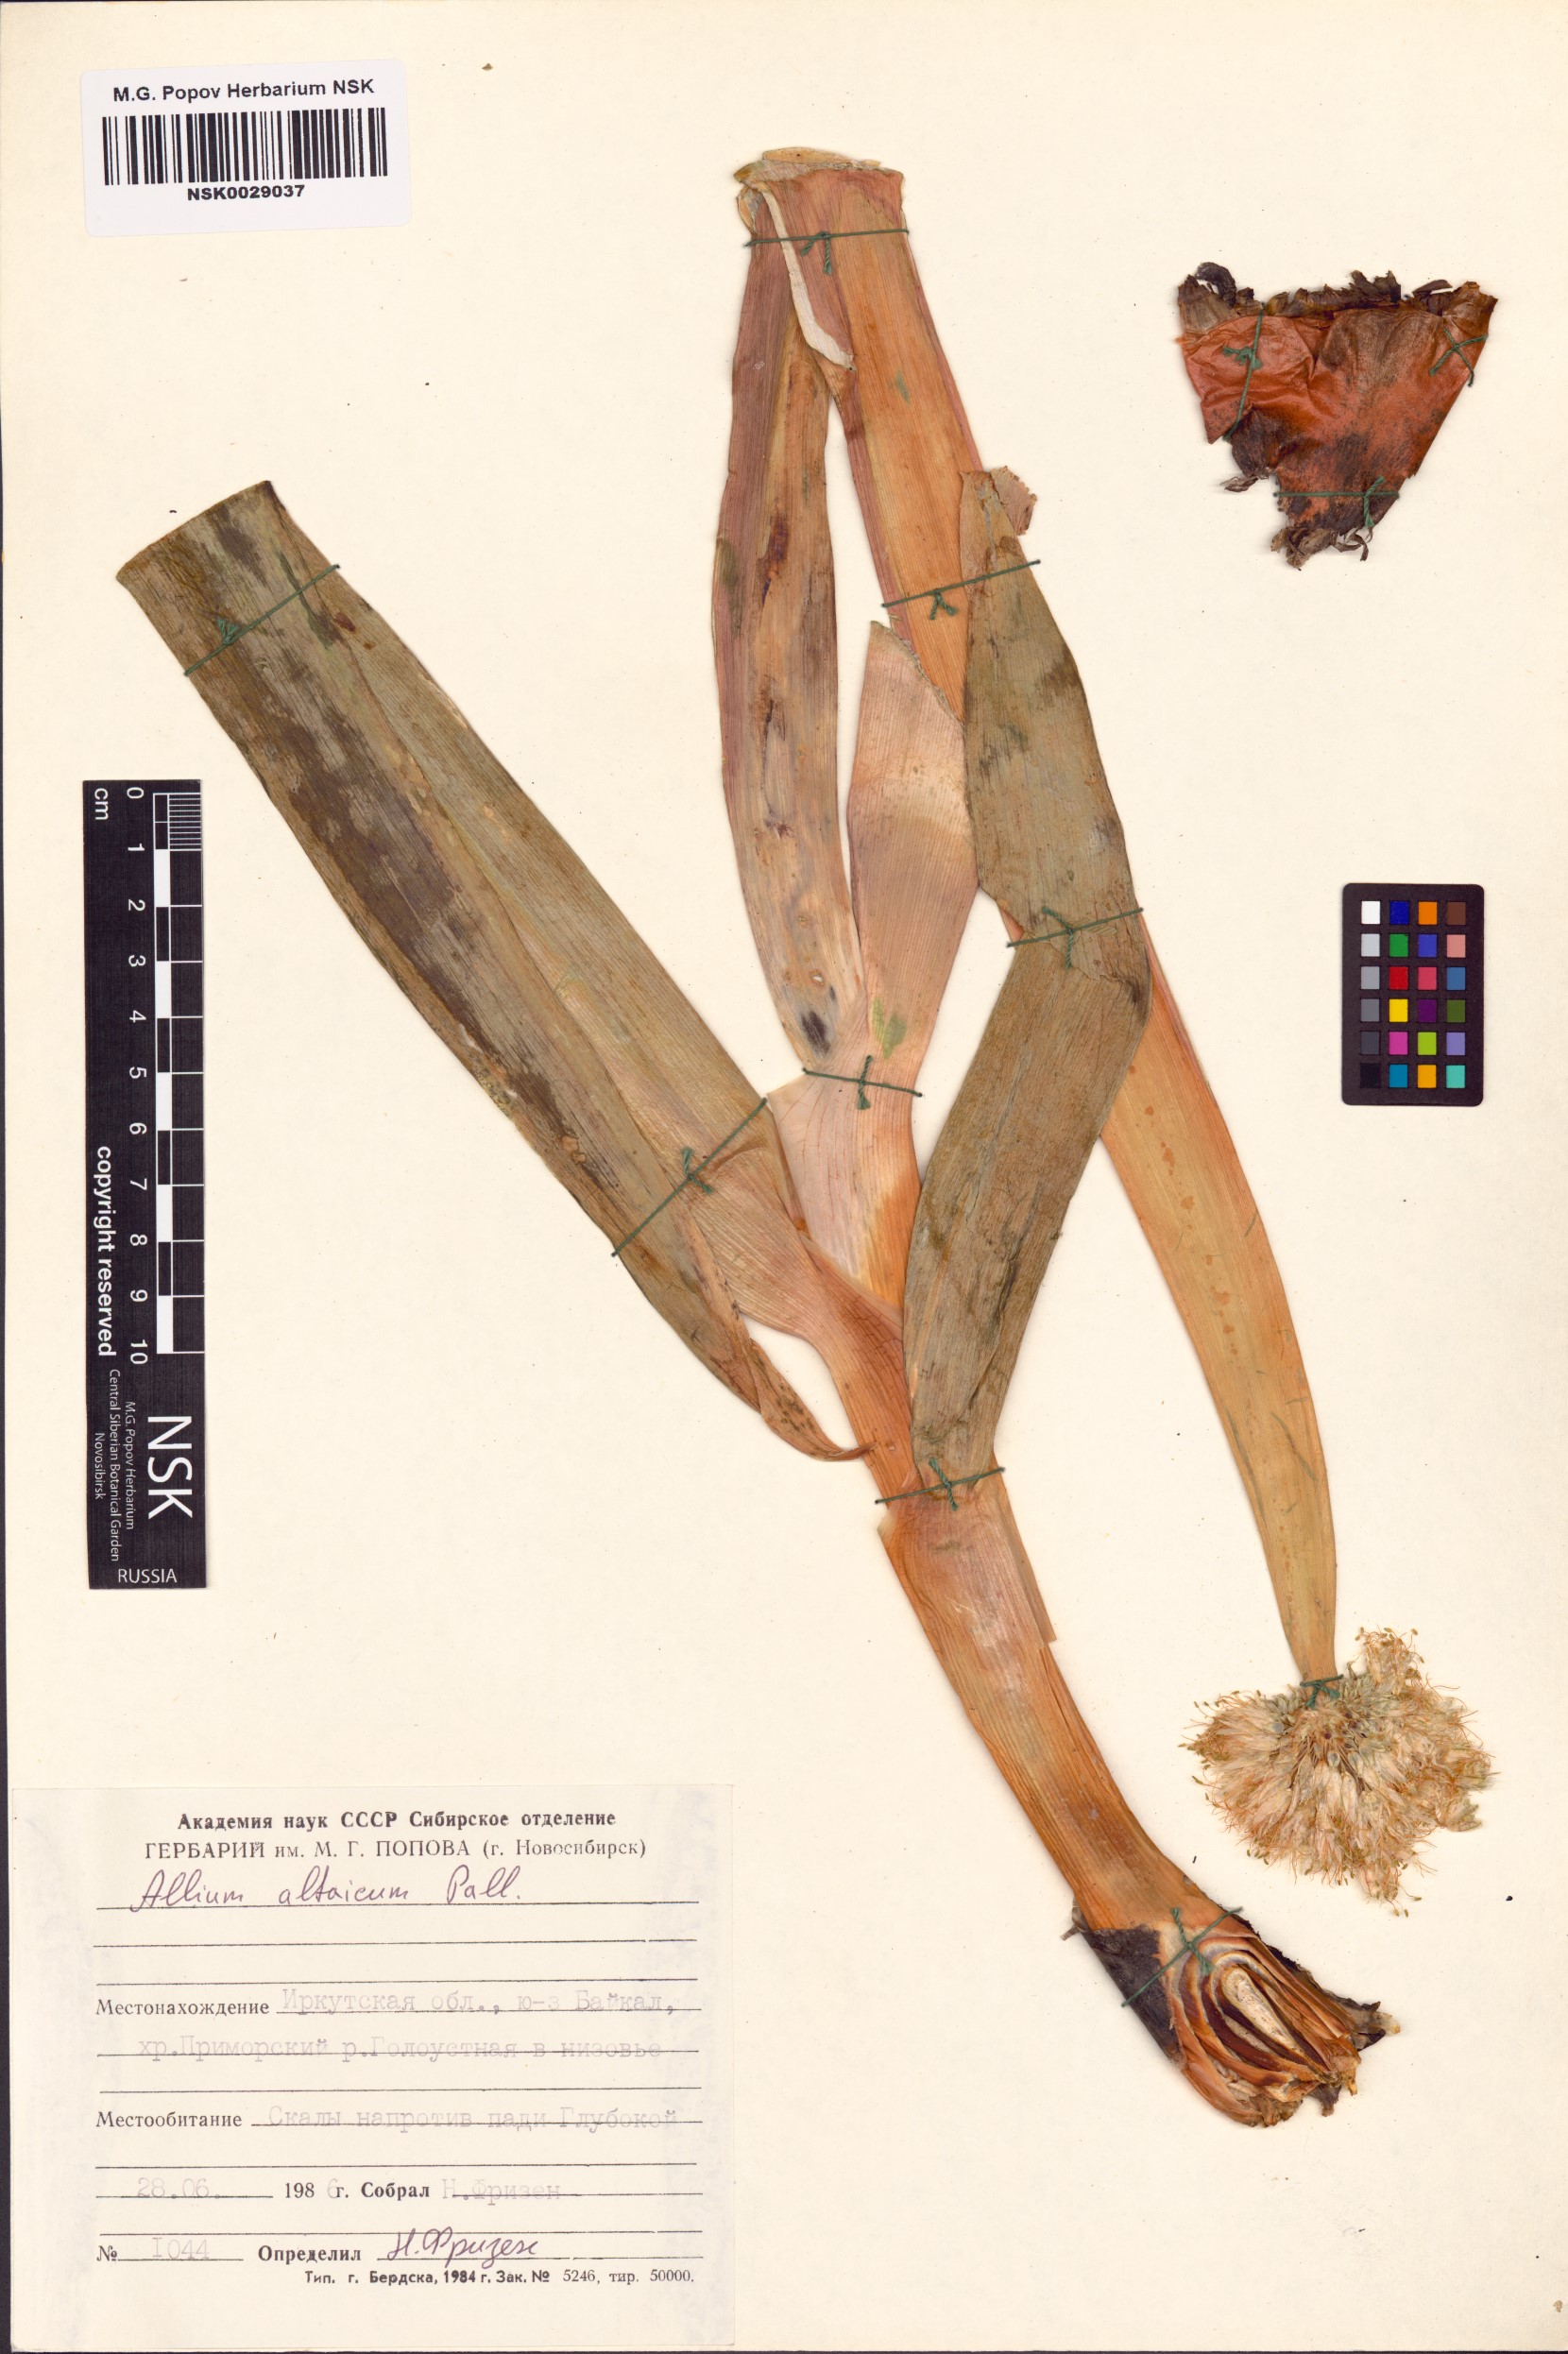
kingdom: Plantae
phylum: Tracheophyta
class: Liliopsida
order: Asparagales
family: Amaryllidaceae
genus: Allium
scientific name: Allium altaicum
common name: Altai onion
